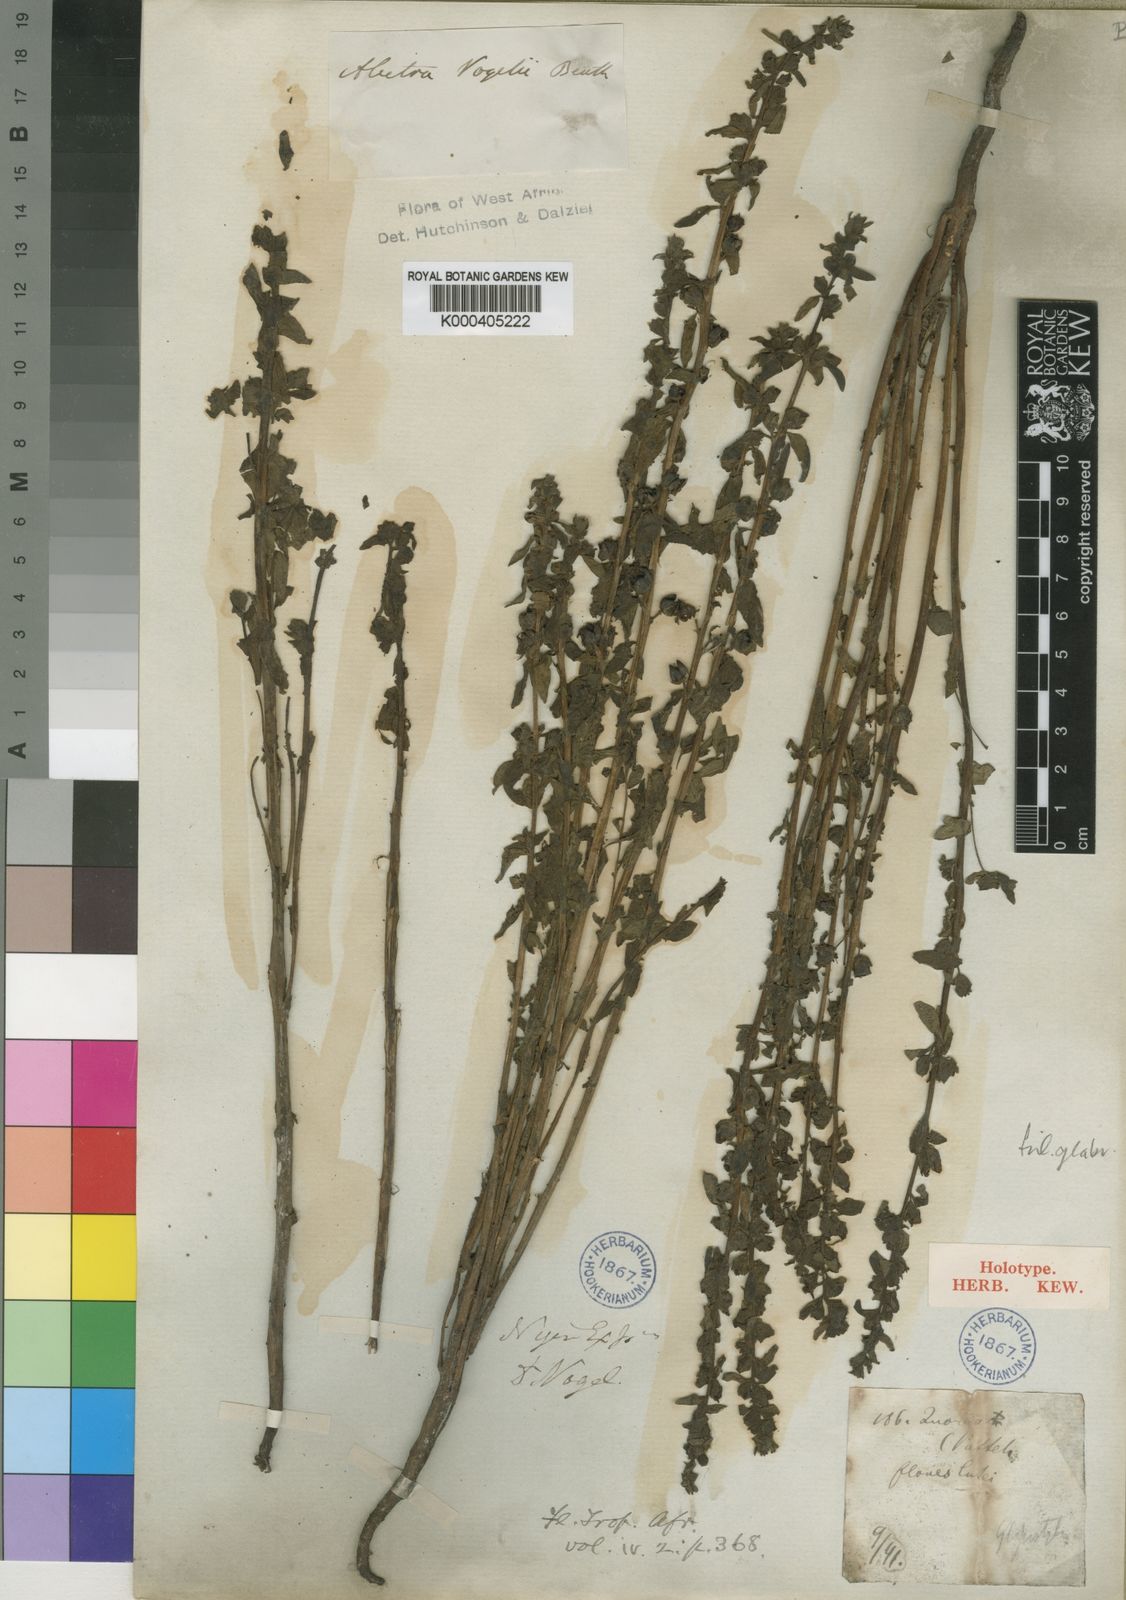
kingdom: Plantae
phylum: Tracheophyta
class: Magnoliopsida
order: Lamiales
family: Orobanchaceae
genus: Alectra
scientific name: Alectra vogelii
